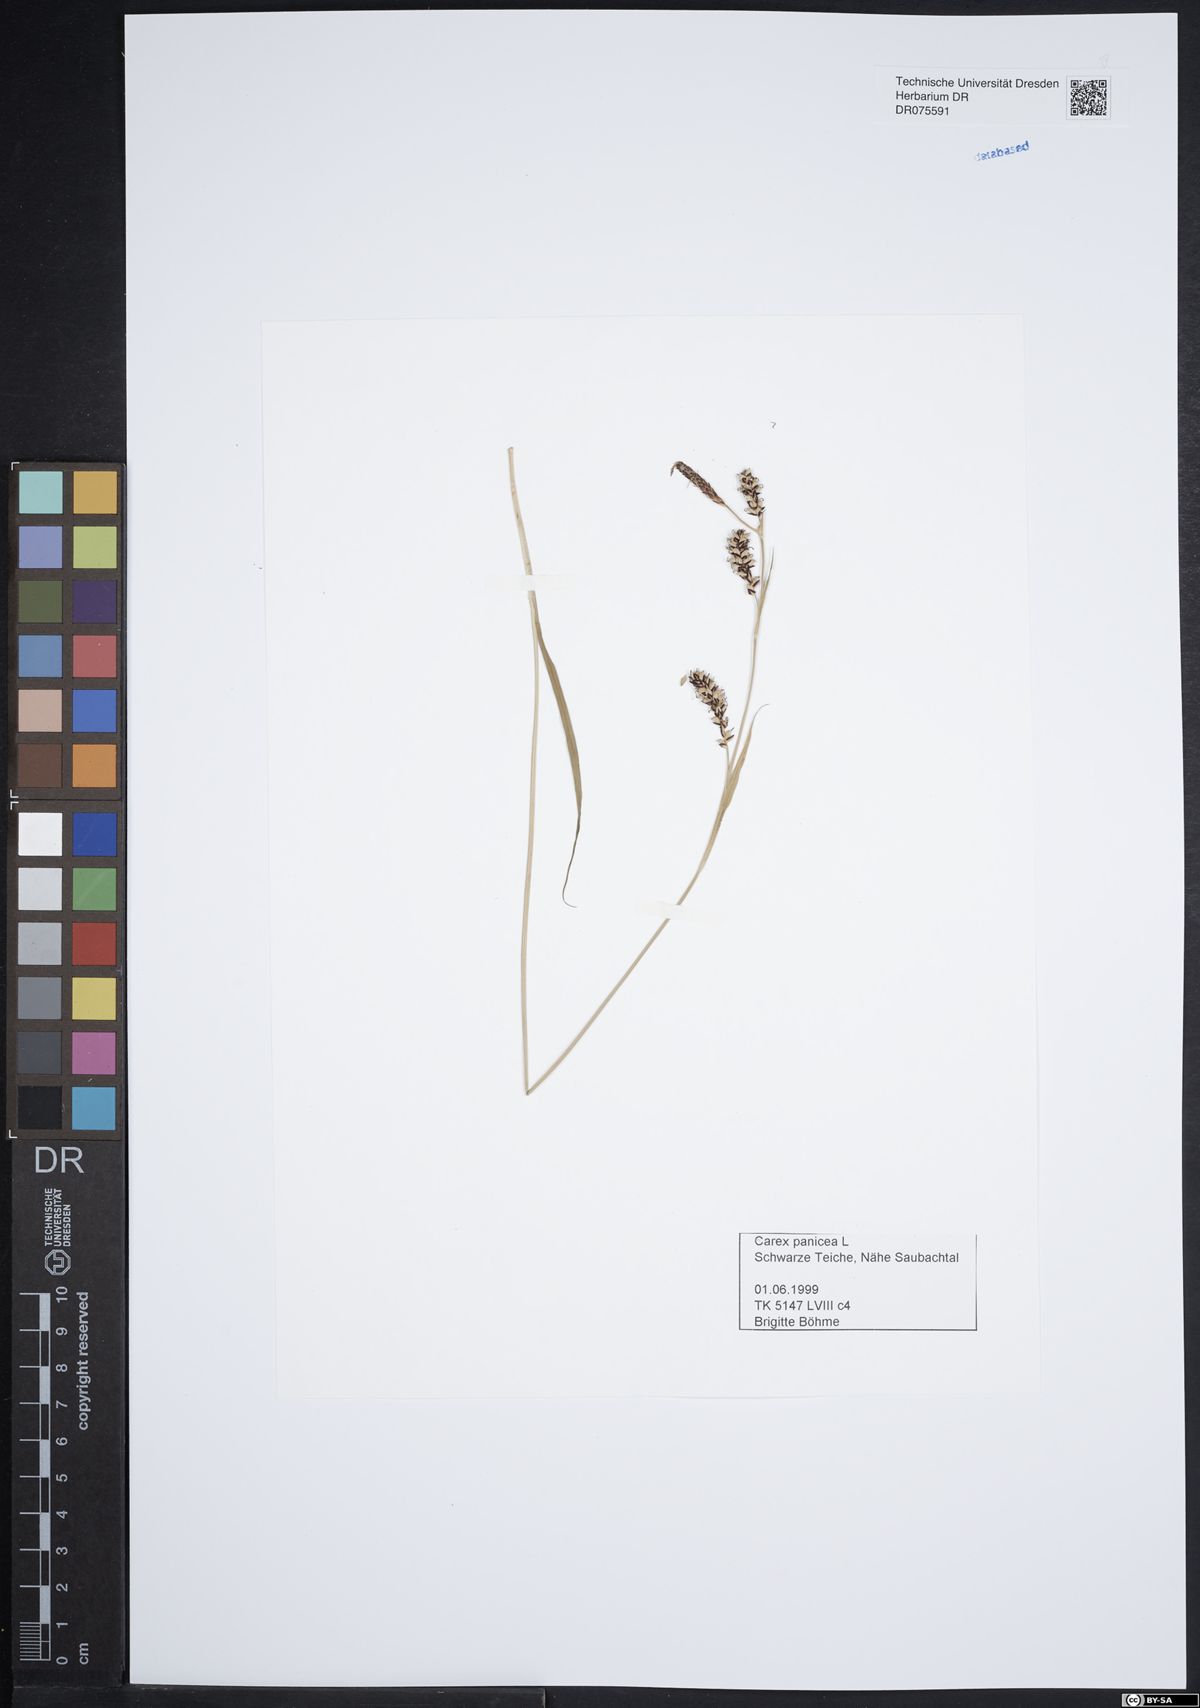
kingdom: Plantae
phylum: Tracheophyta
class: Liliopsida
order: Poales
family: Cyperaceae
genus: Carex
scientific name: Carex panicea
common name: Carnation sedge
